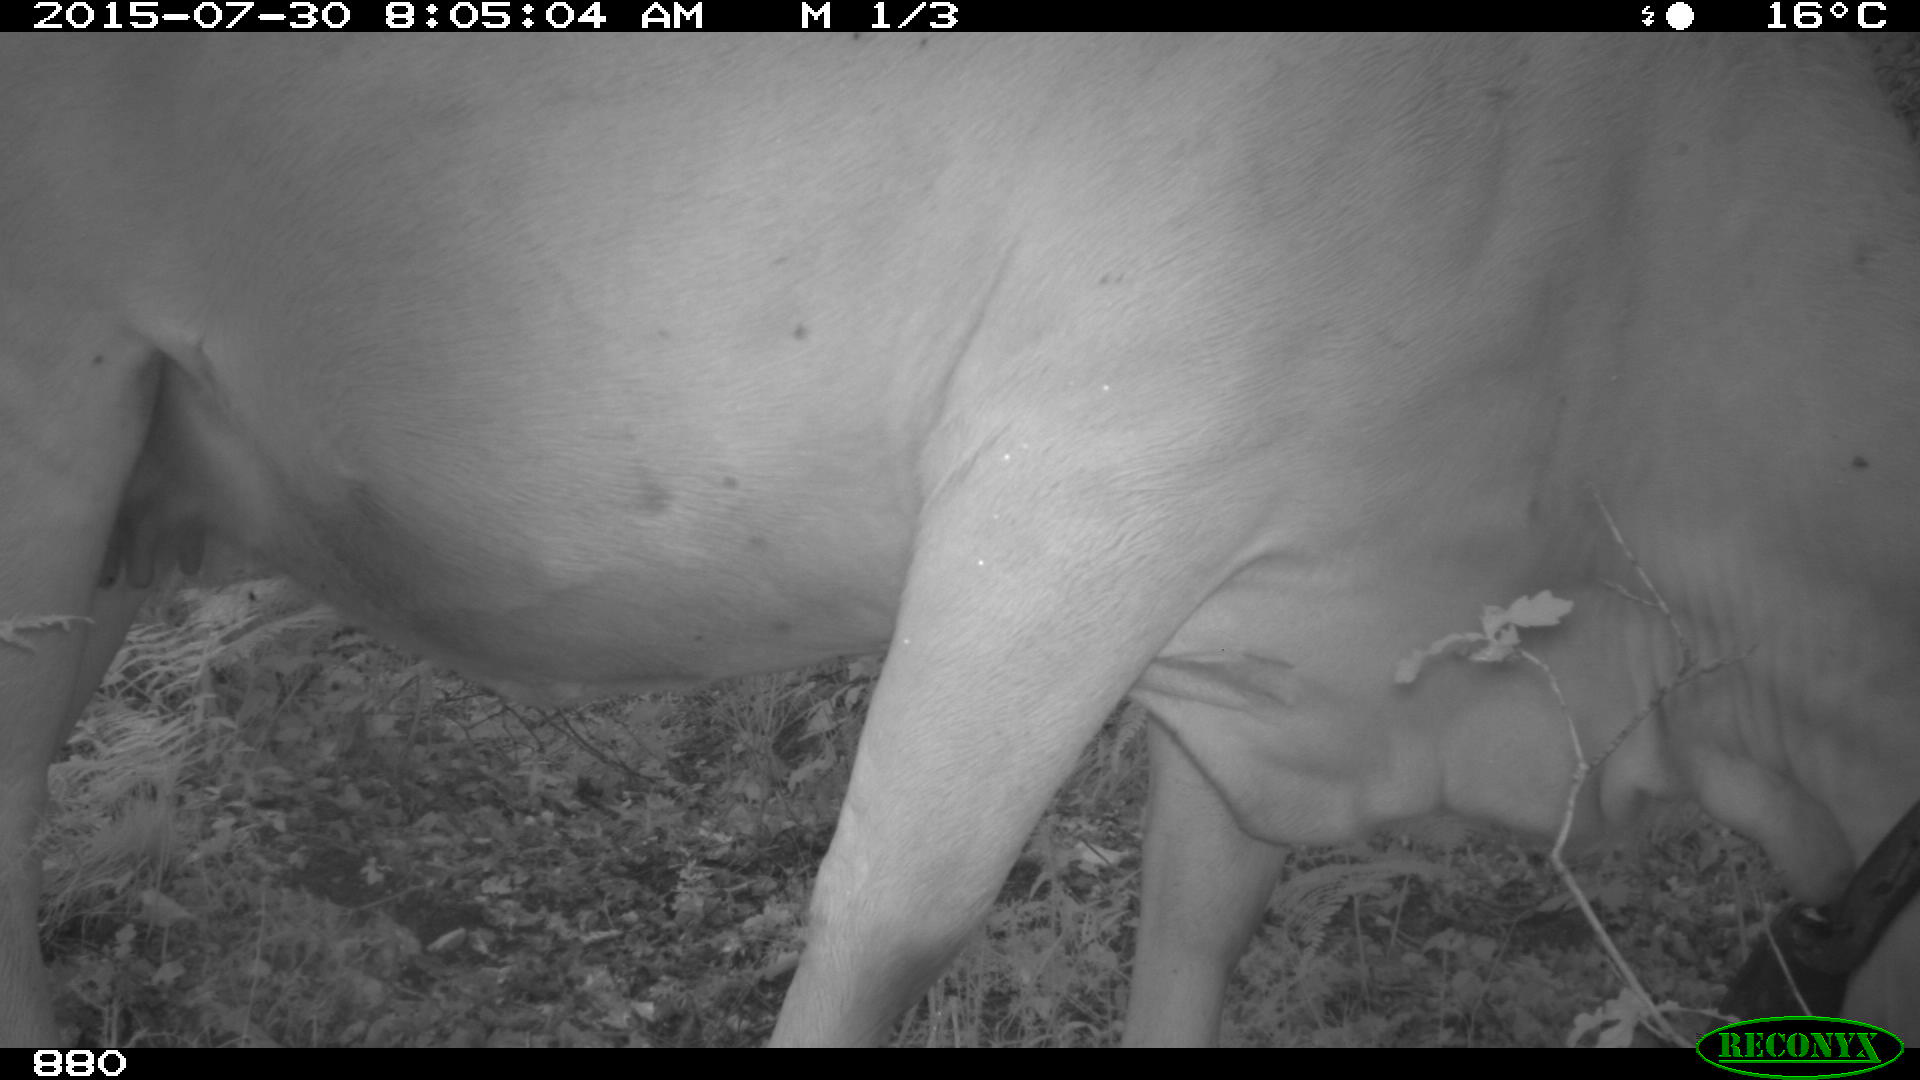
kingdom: Animalia
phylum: Chordata
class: Mammalia
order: Artiodactyla
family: Bovidae
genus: Bos
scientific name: Bos taurus
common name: Domesticated cattle
